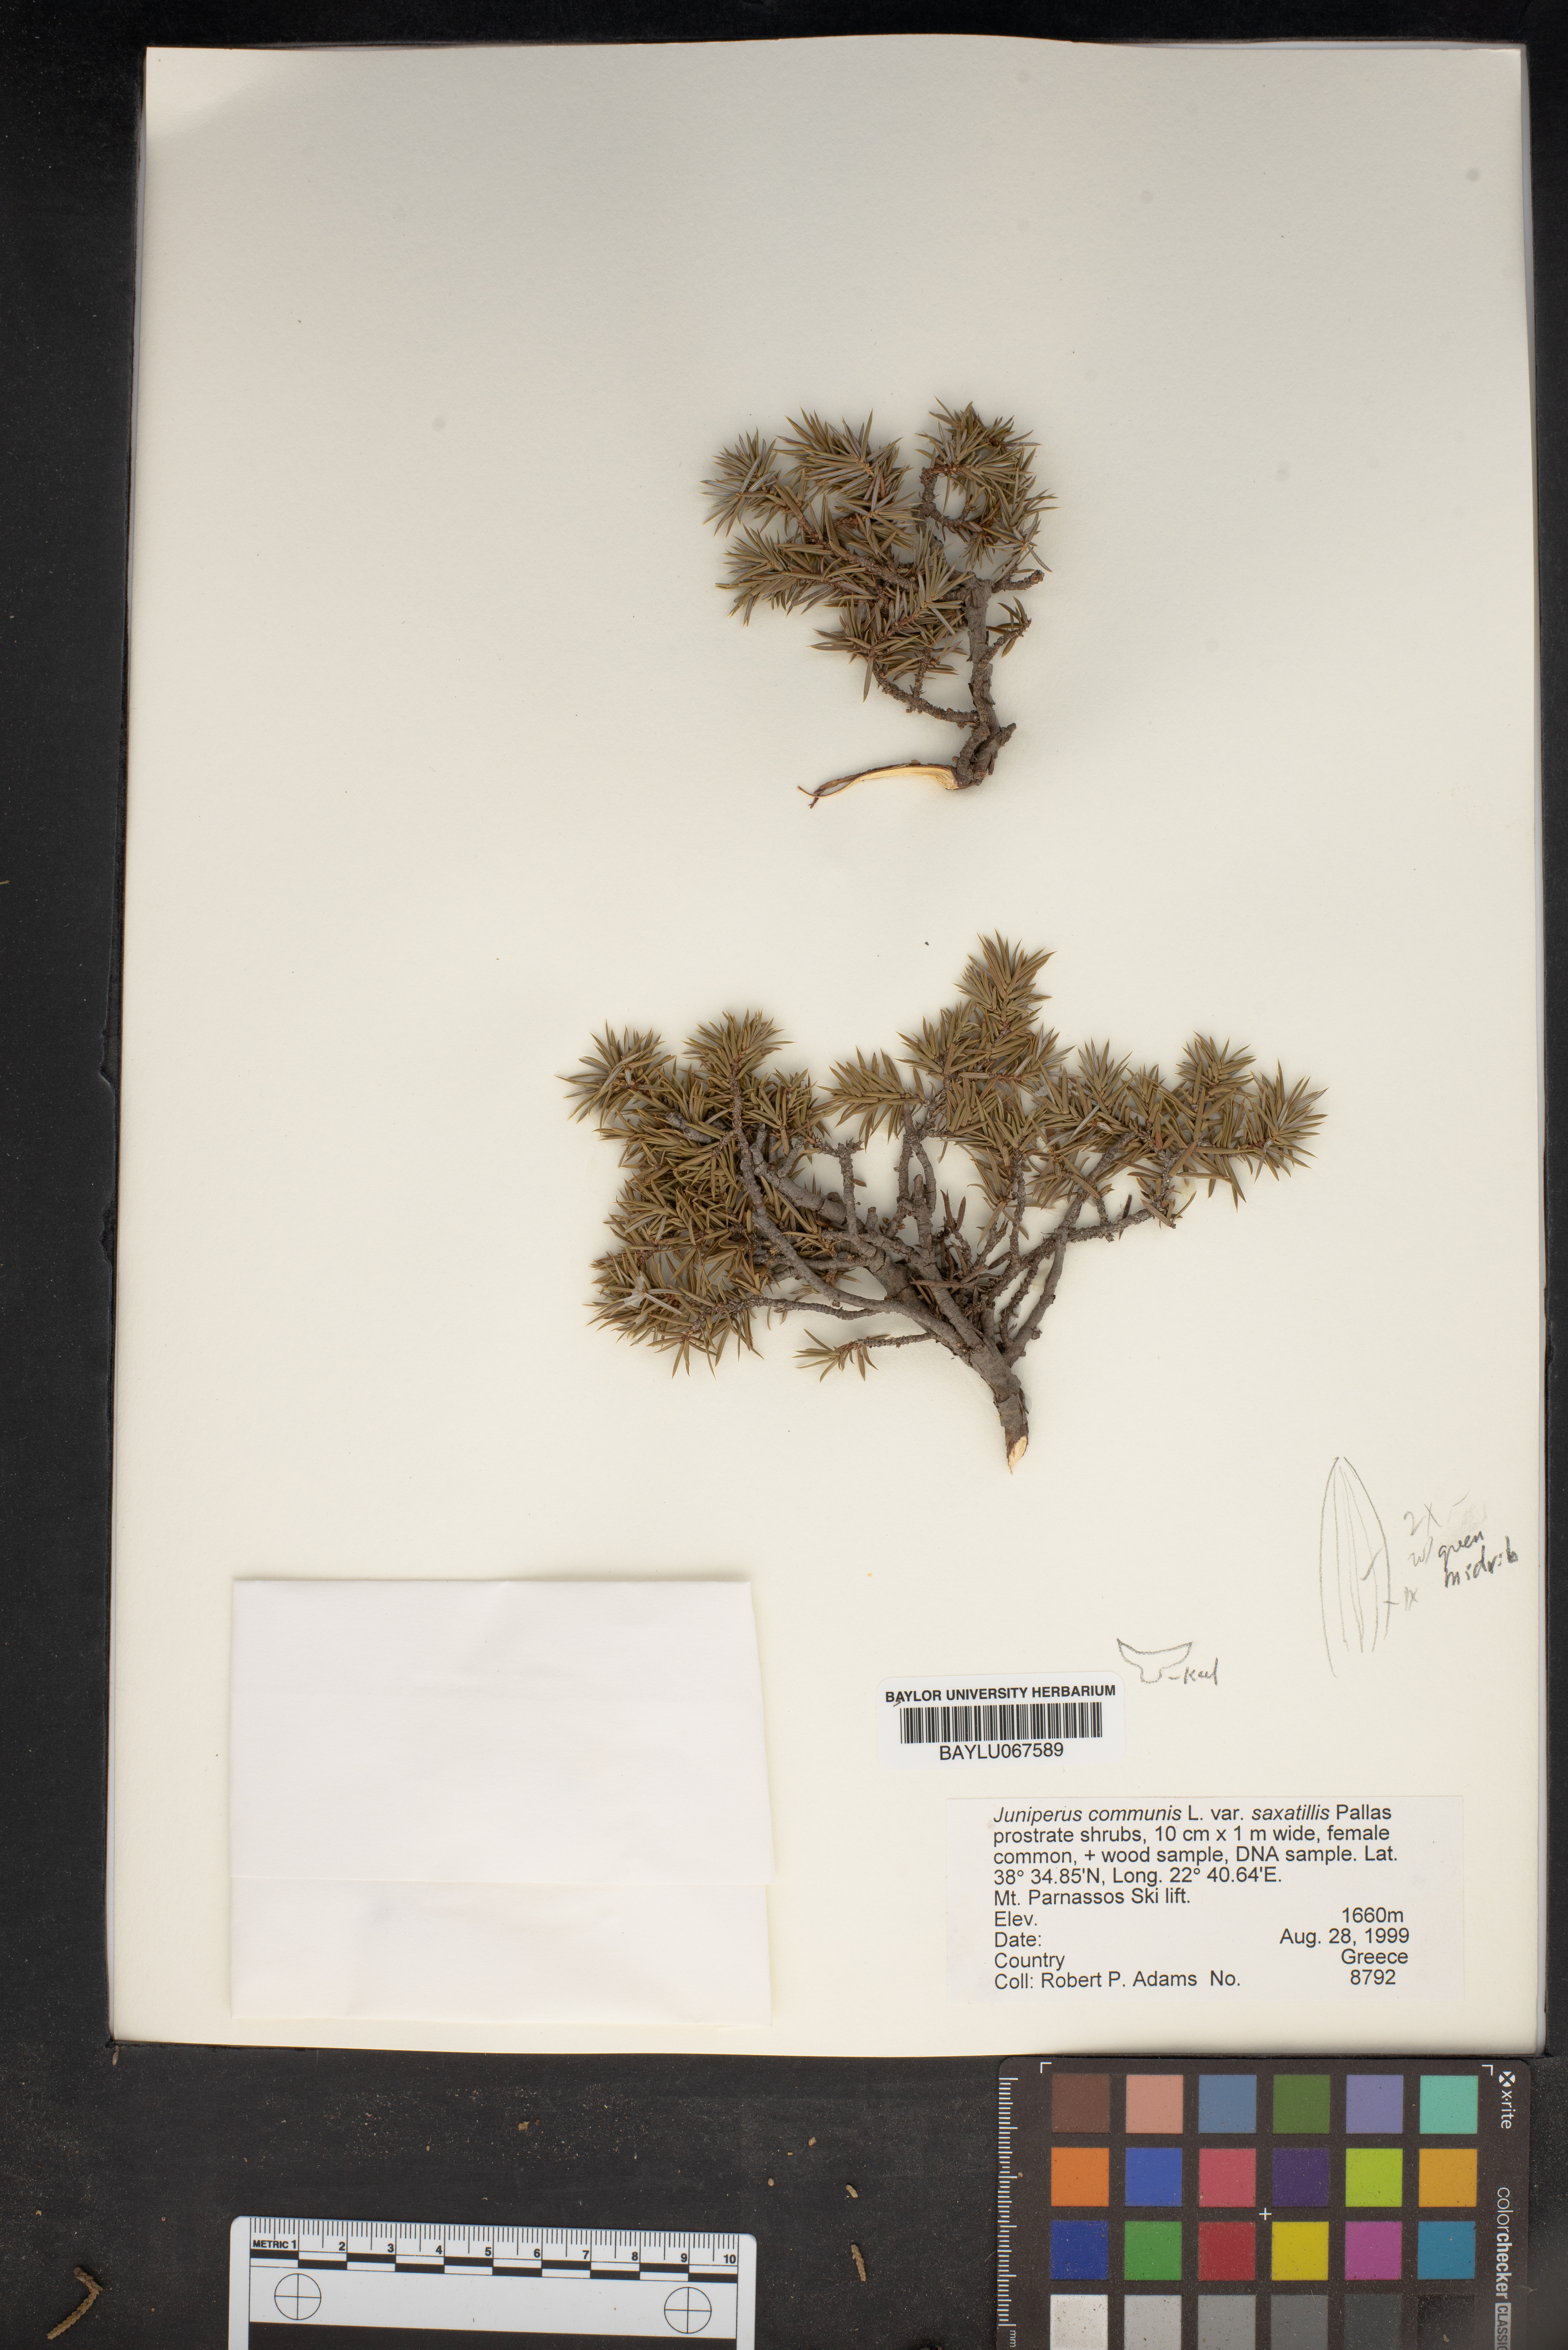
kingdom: Plantae
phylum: Tracheophyta
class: Pinopsida
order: Pinales
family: Cupressaceae
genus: Juniperus
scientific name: Juniperus communis
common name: Common juniper
